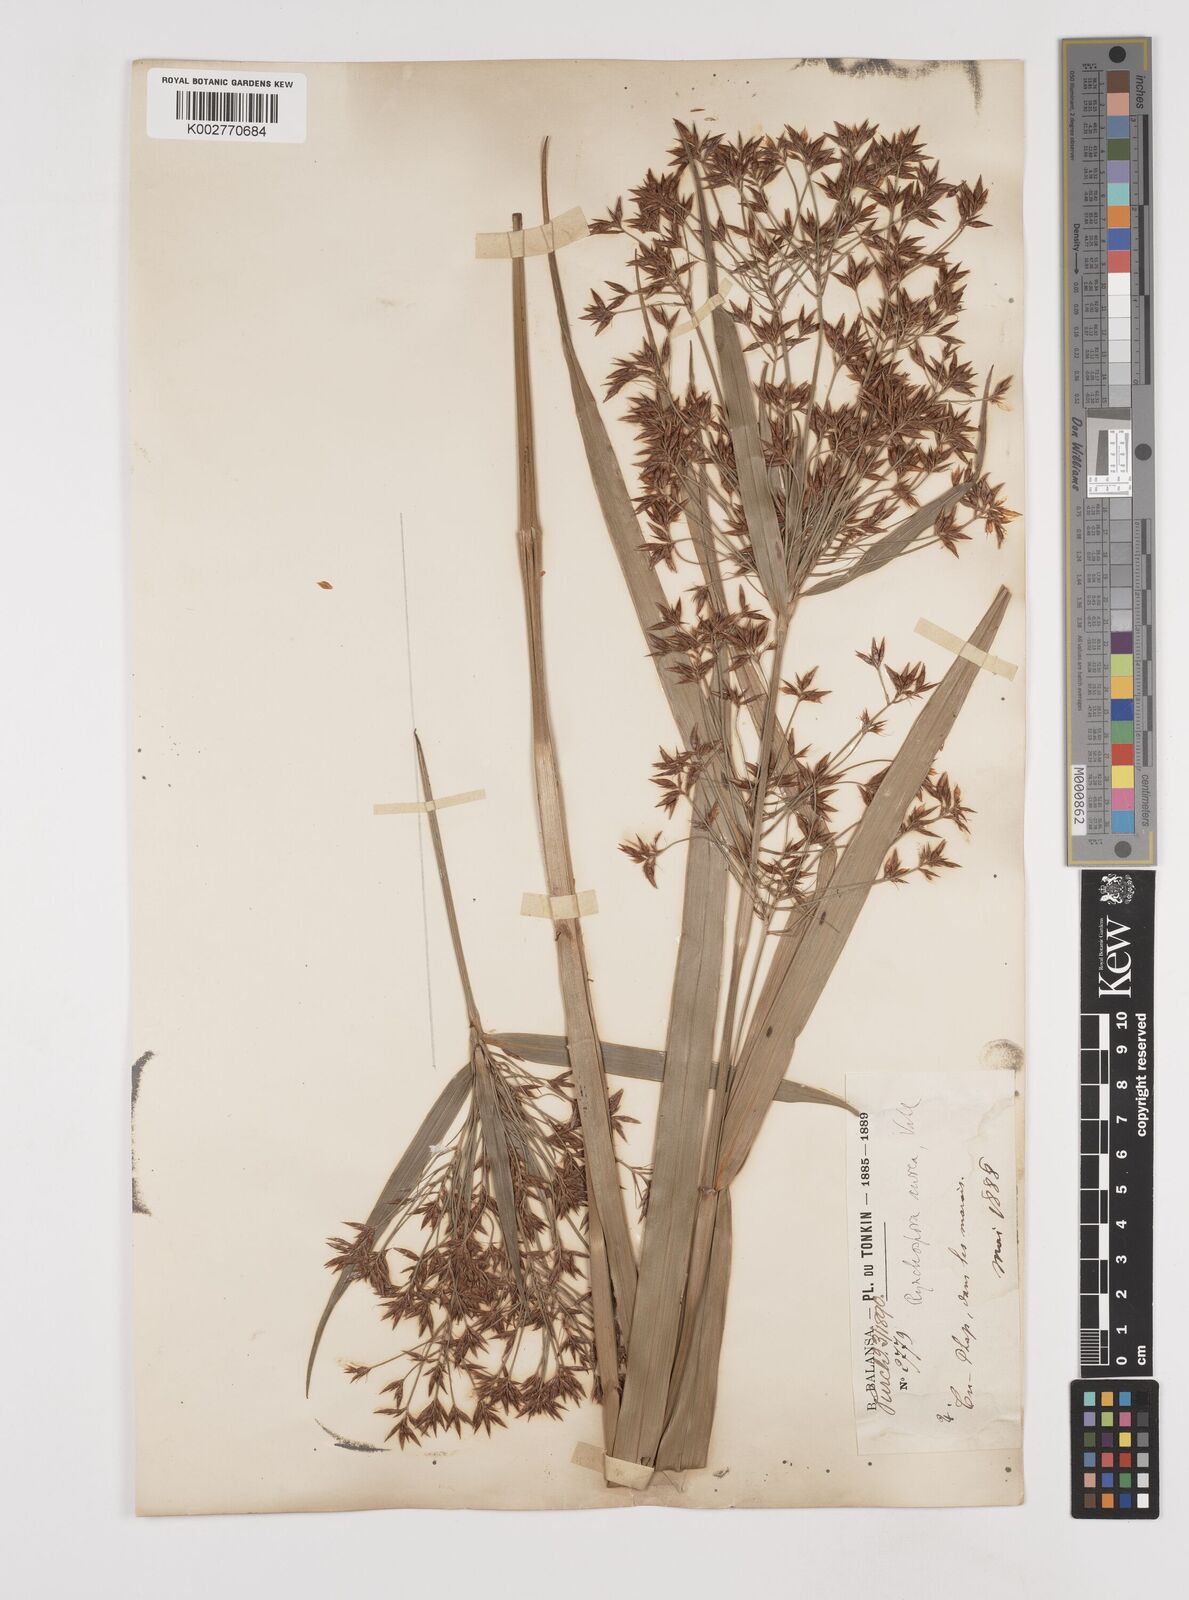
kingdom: Plantae
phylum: Tracheophyta
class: Liliopsida
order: Poales
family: Cyperaceae
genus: Rhynchospora
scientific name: Rhynchospora corymbosa
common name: Golden beak sedge
